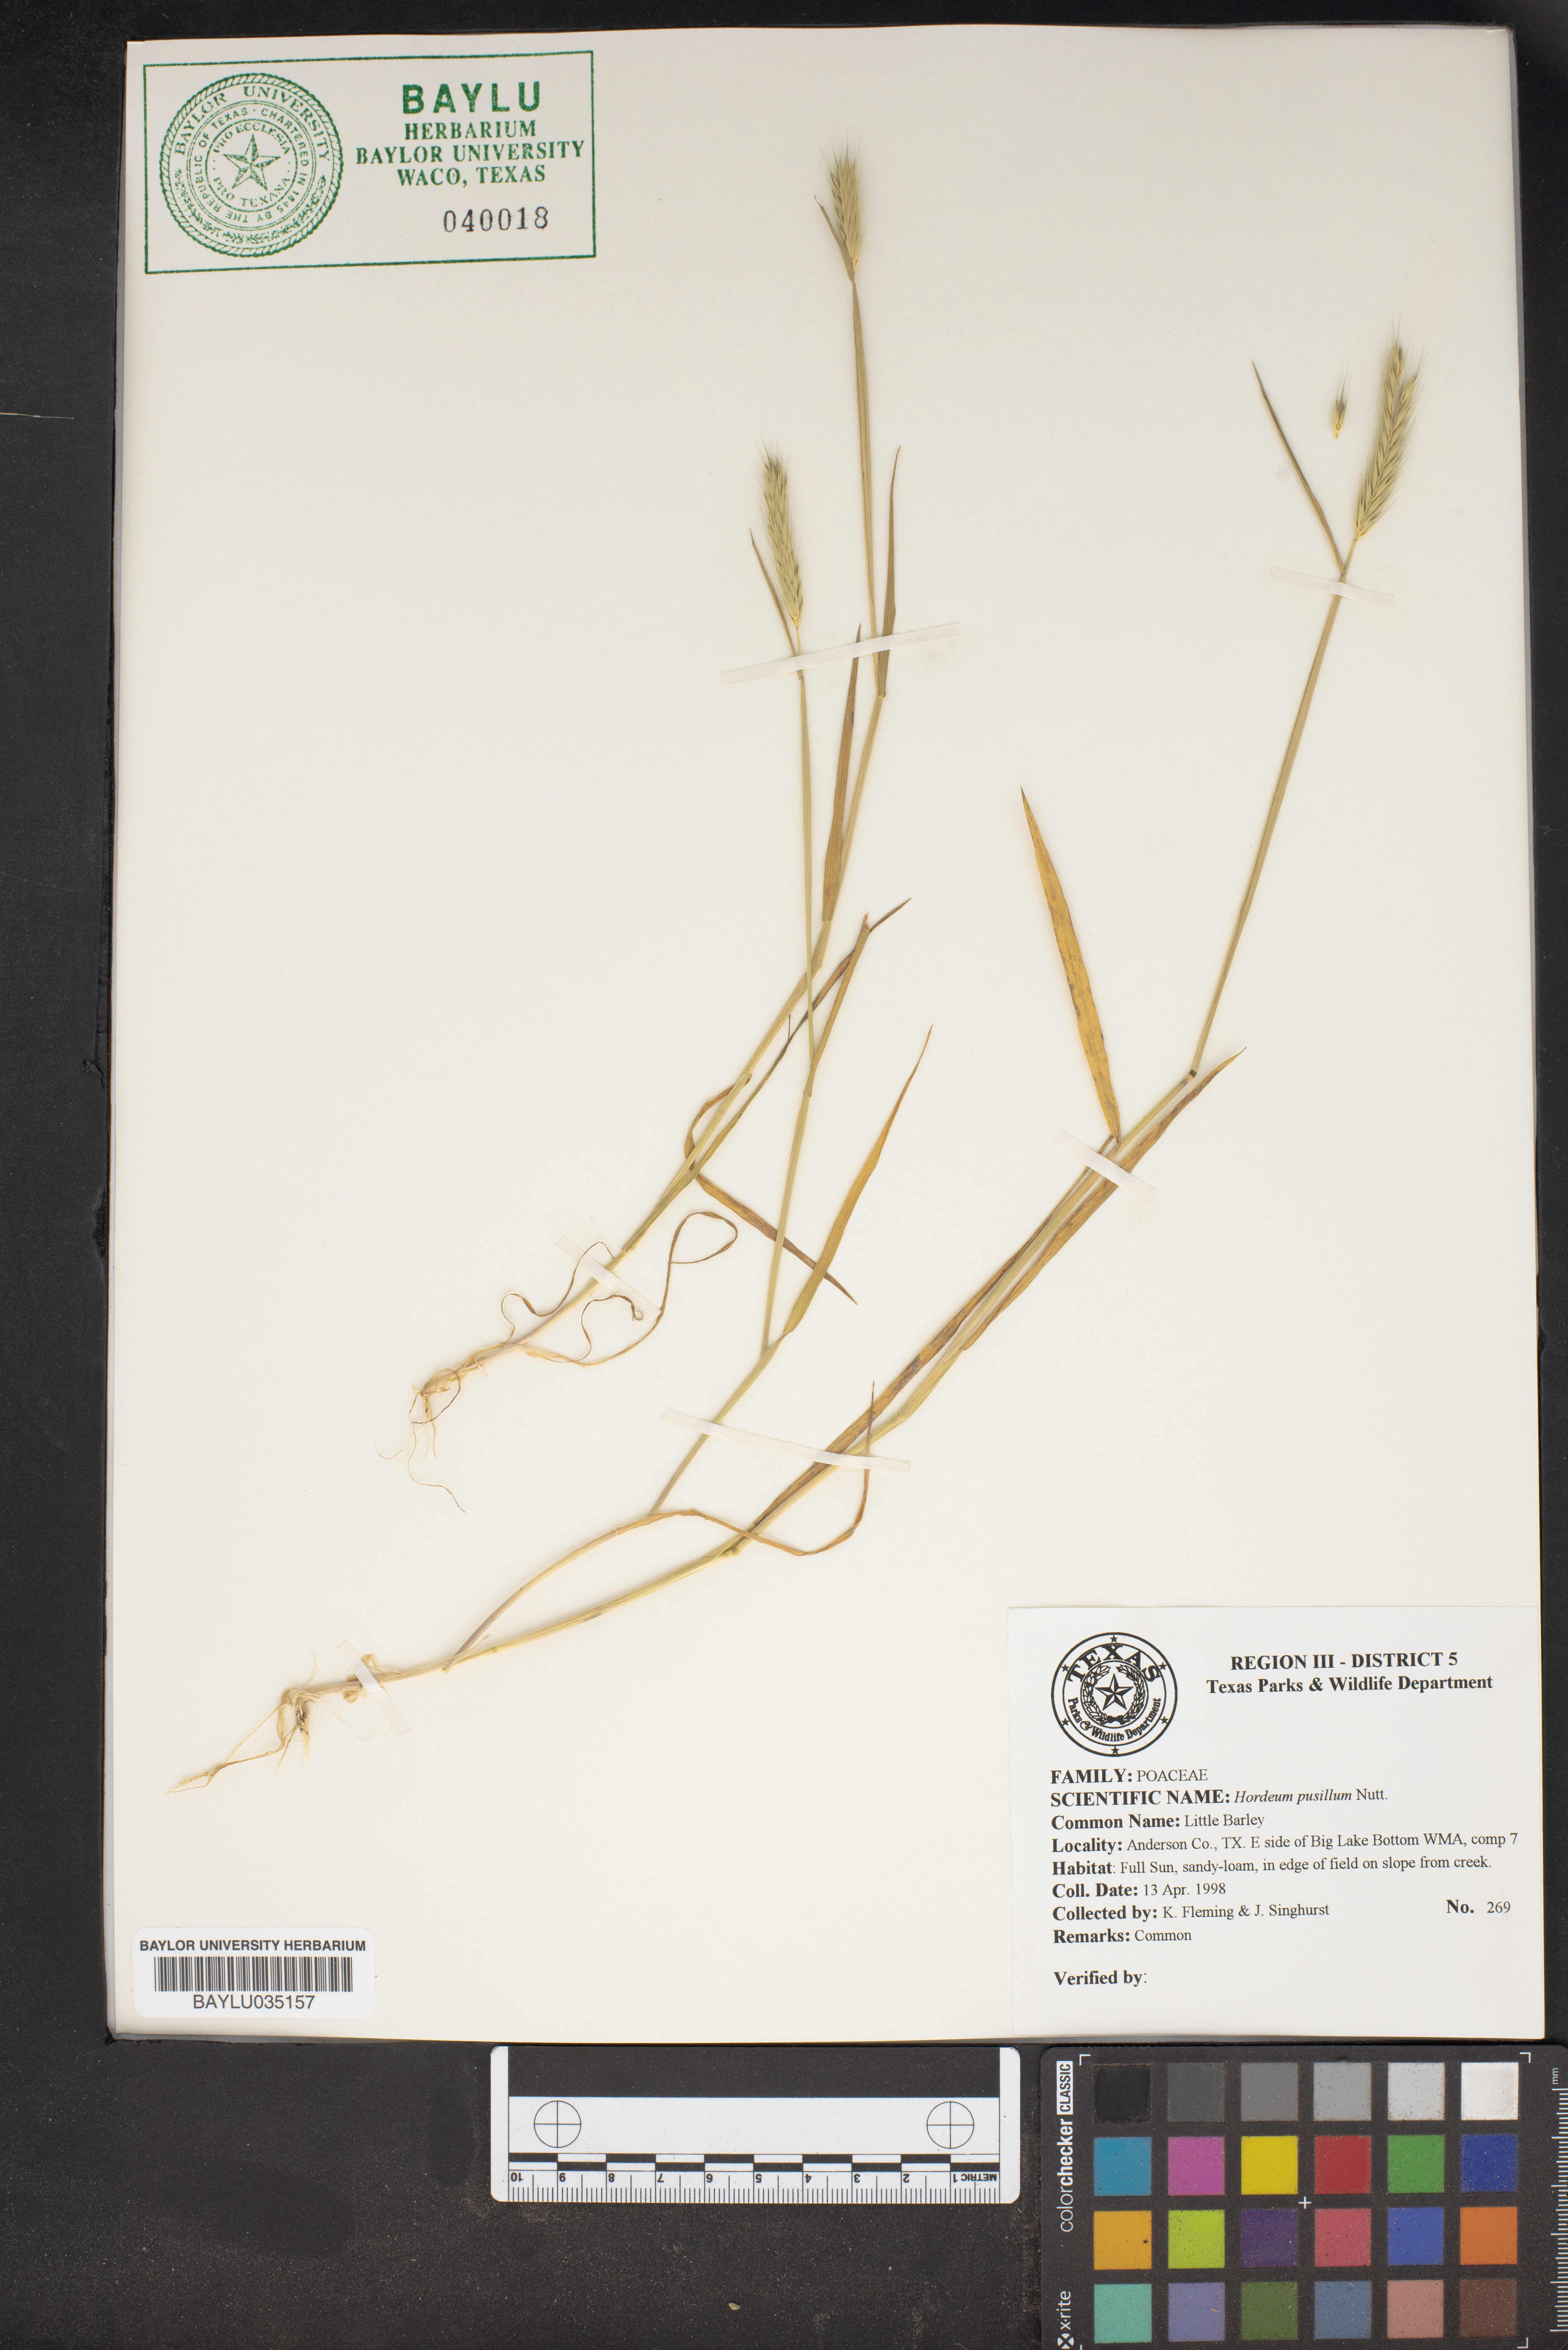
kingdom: Plantae
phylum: Tracheophyta
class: Liliopsida
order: Poales
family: Poaceae
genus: Hordeum
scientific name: Hordeum pusillum
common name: Little barley
